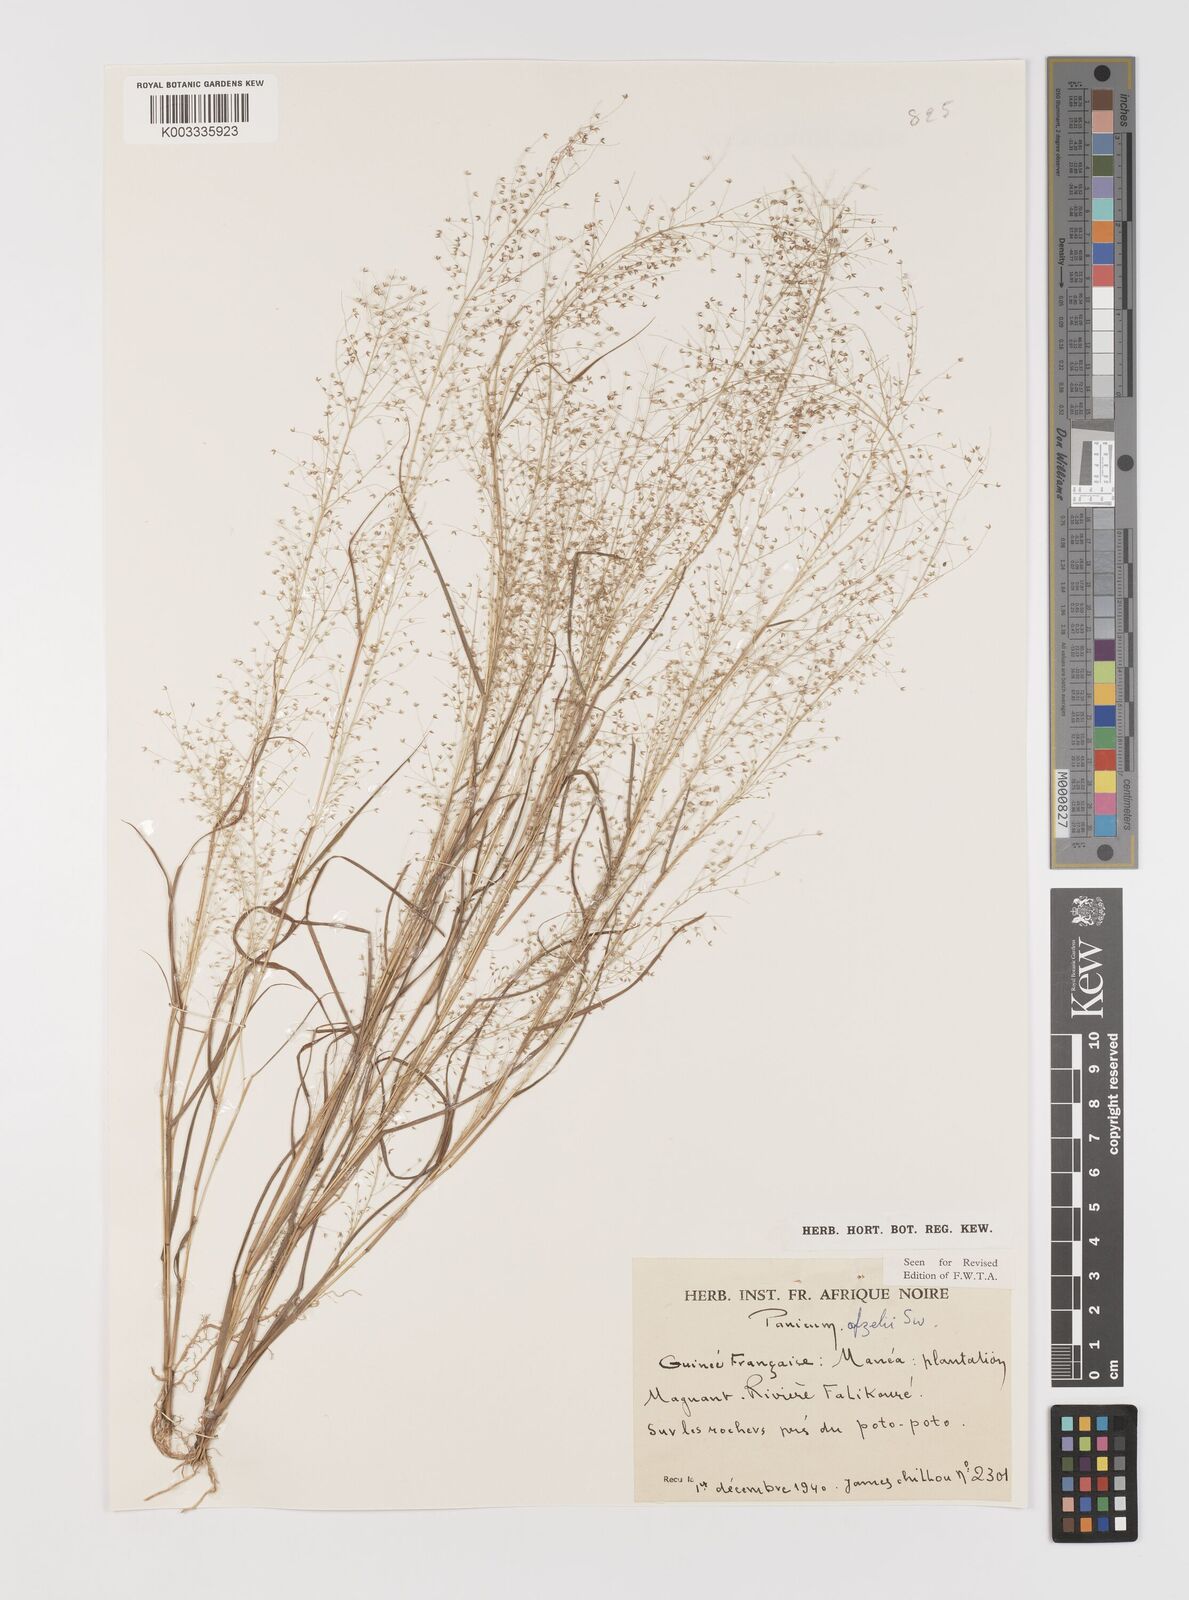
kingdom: Plantae
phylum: Tracheophyta
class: Liliopsida
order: Poales
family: Poaceae
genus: Panicum
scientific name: Panicum afzelii
